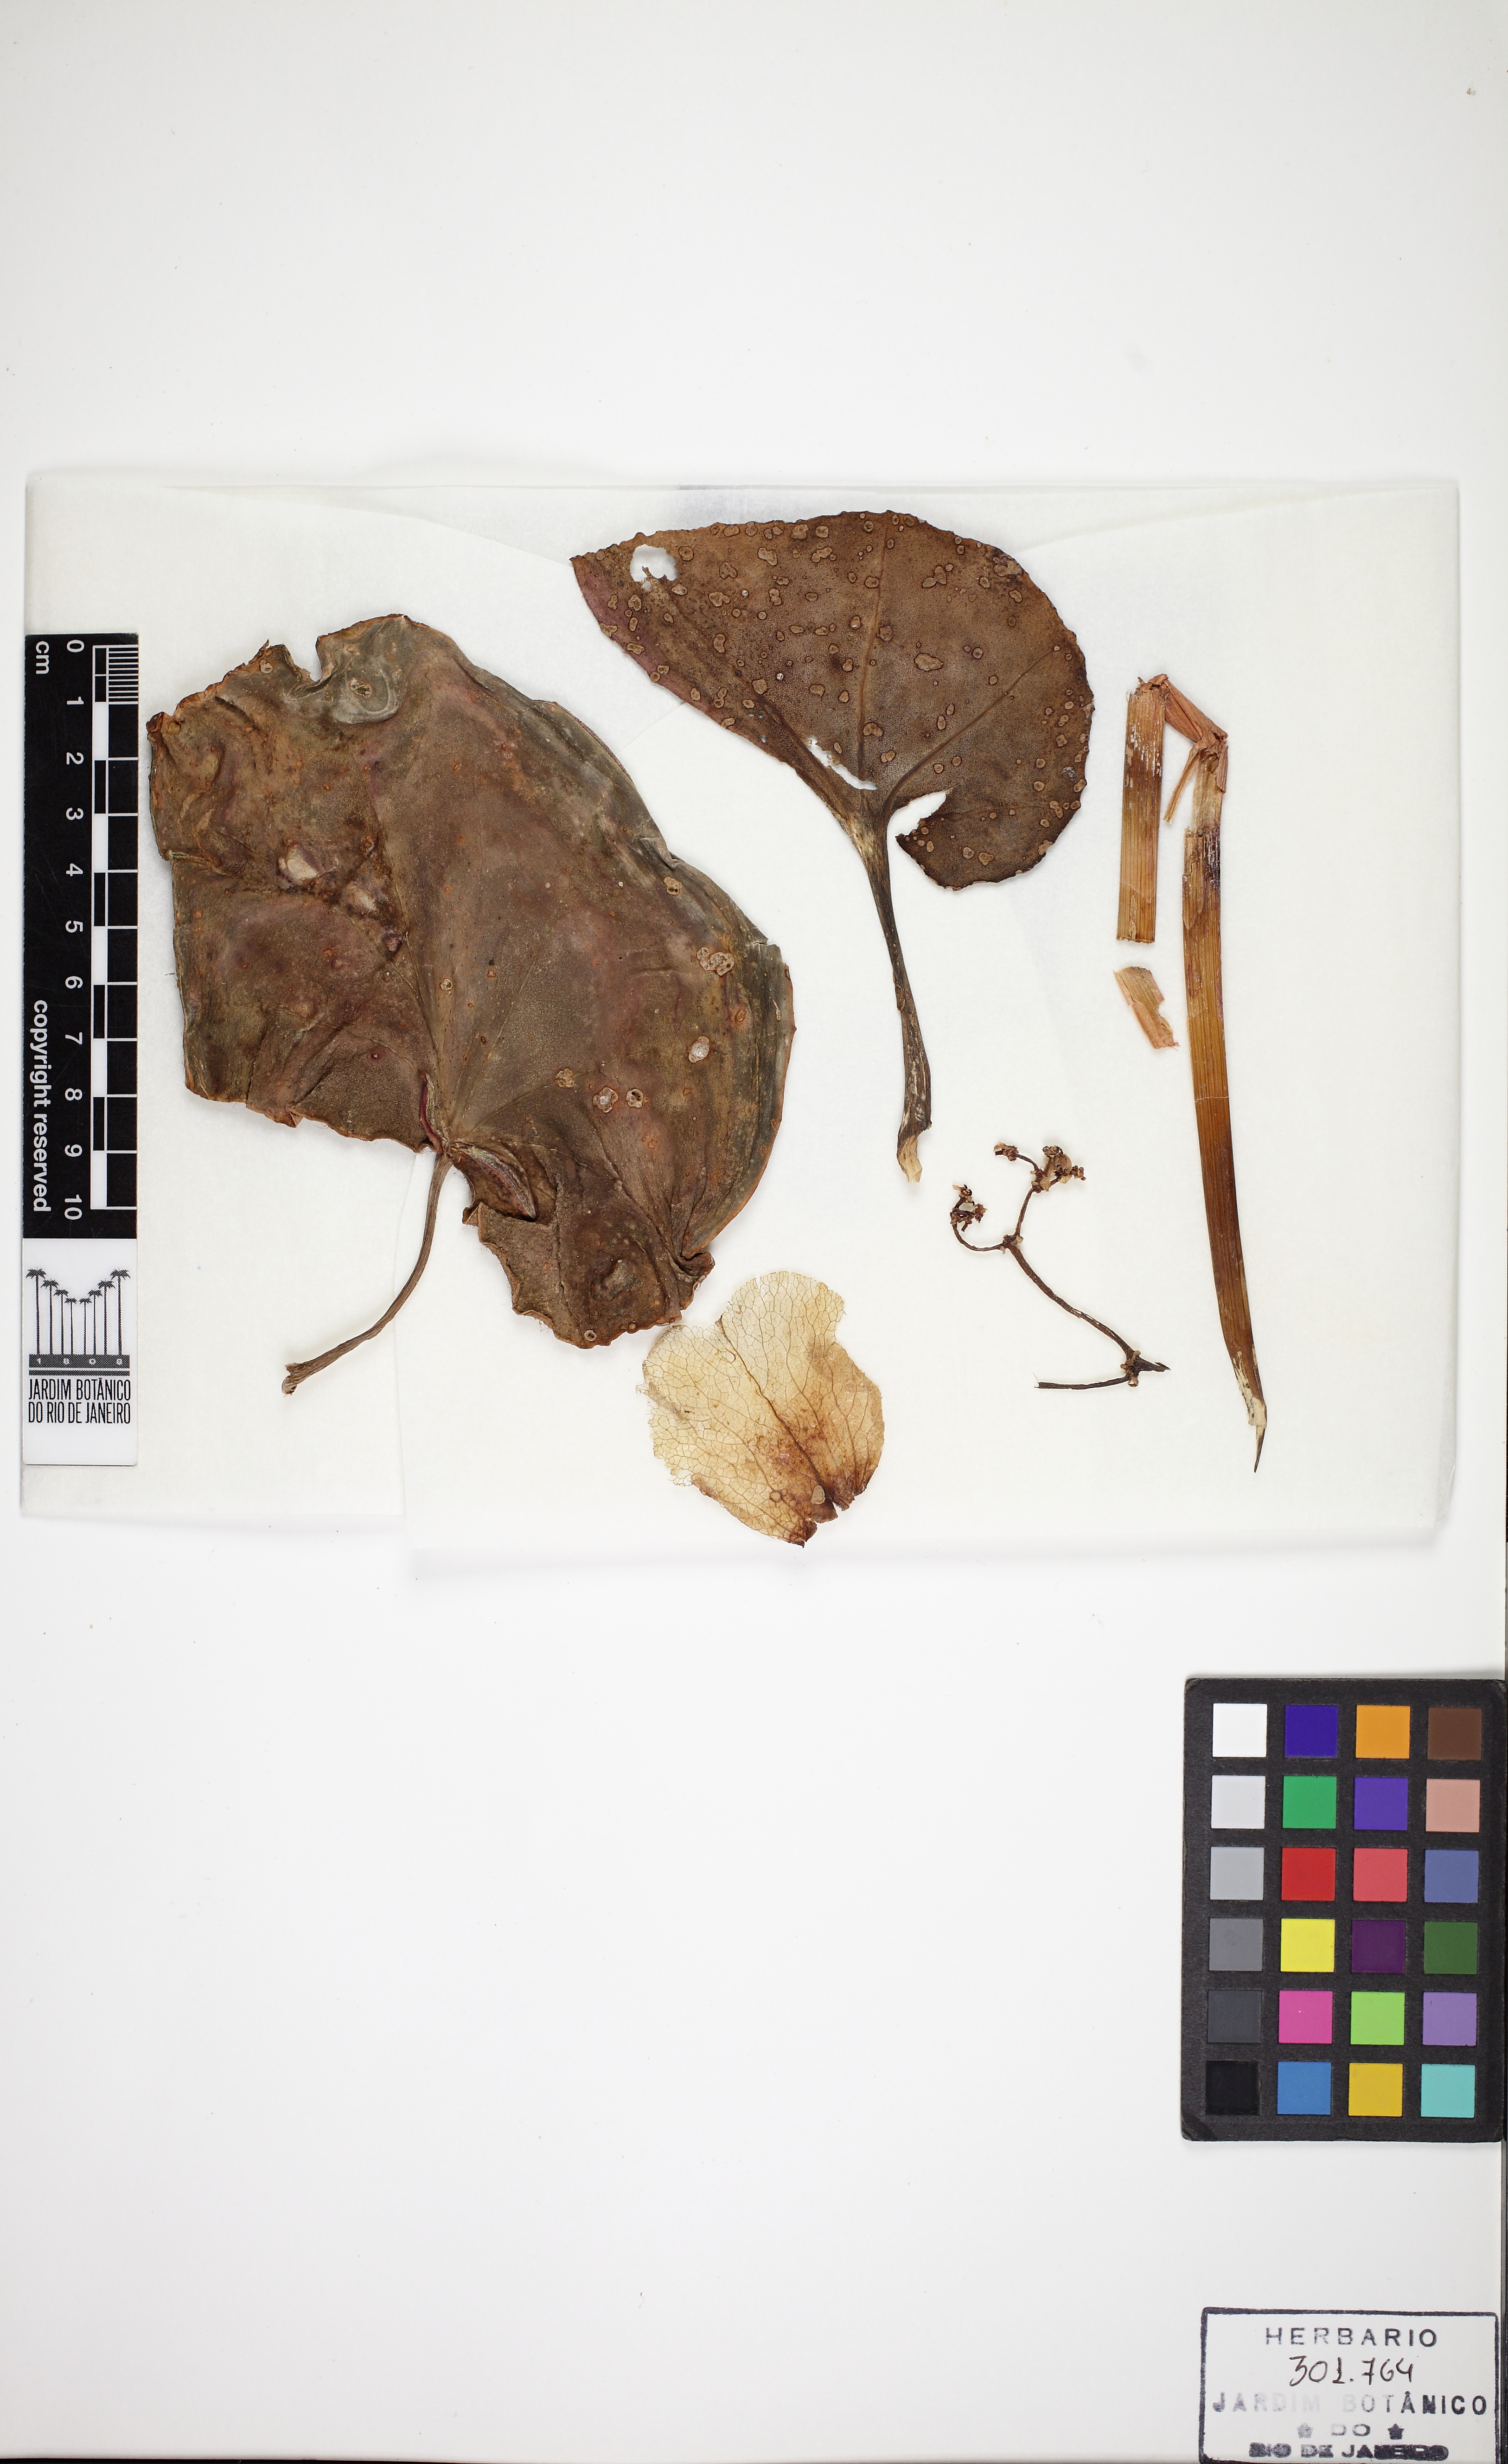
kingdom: Plantae
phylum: Tracheophyta
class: Magnoliopsida
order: Cucurbitales
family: Begoniaceae
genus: Begonia
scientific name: Begonia curtii
